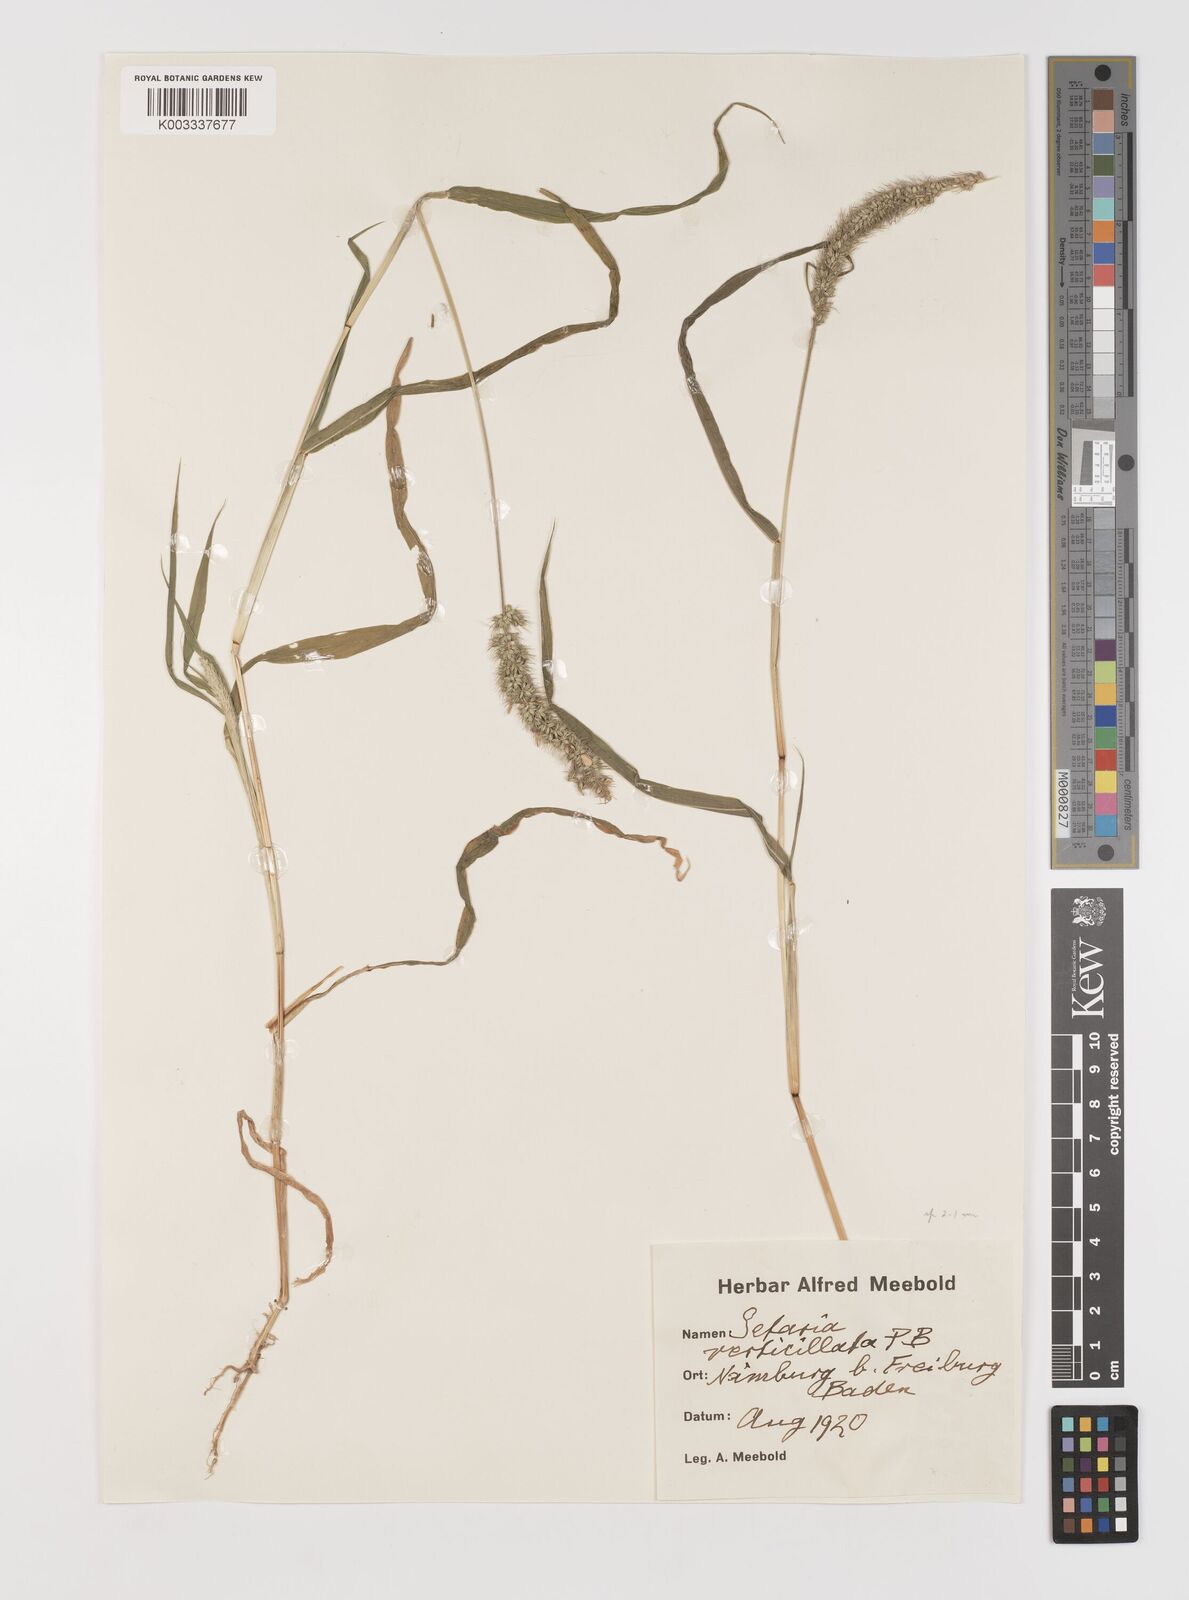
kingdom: Plantae
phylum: Tracheophyta
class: Liliopsida
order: Poales
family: Poaceae
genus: Setaria
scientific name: Setaria verticillata
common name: Hooked bristlegrass
